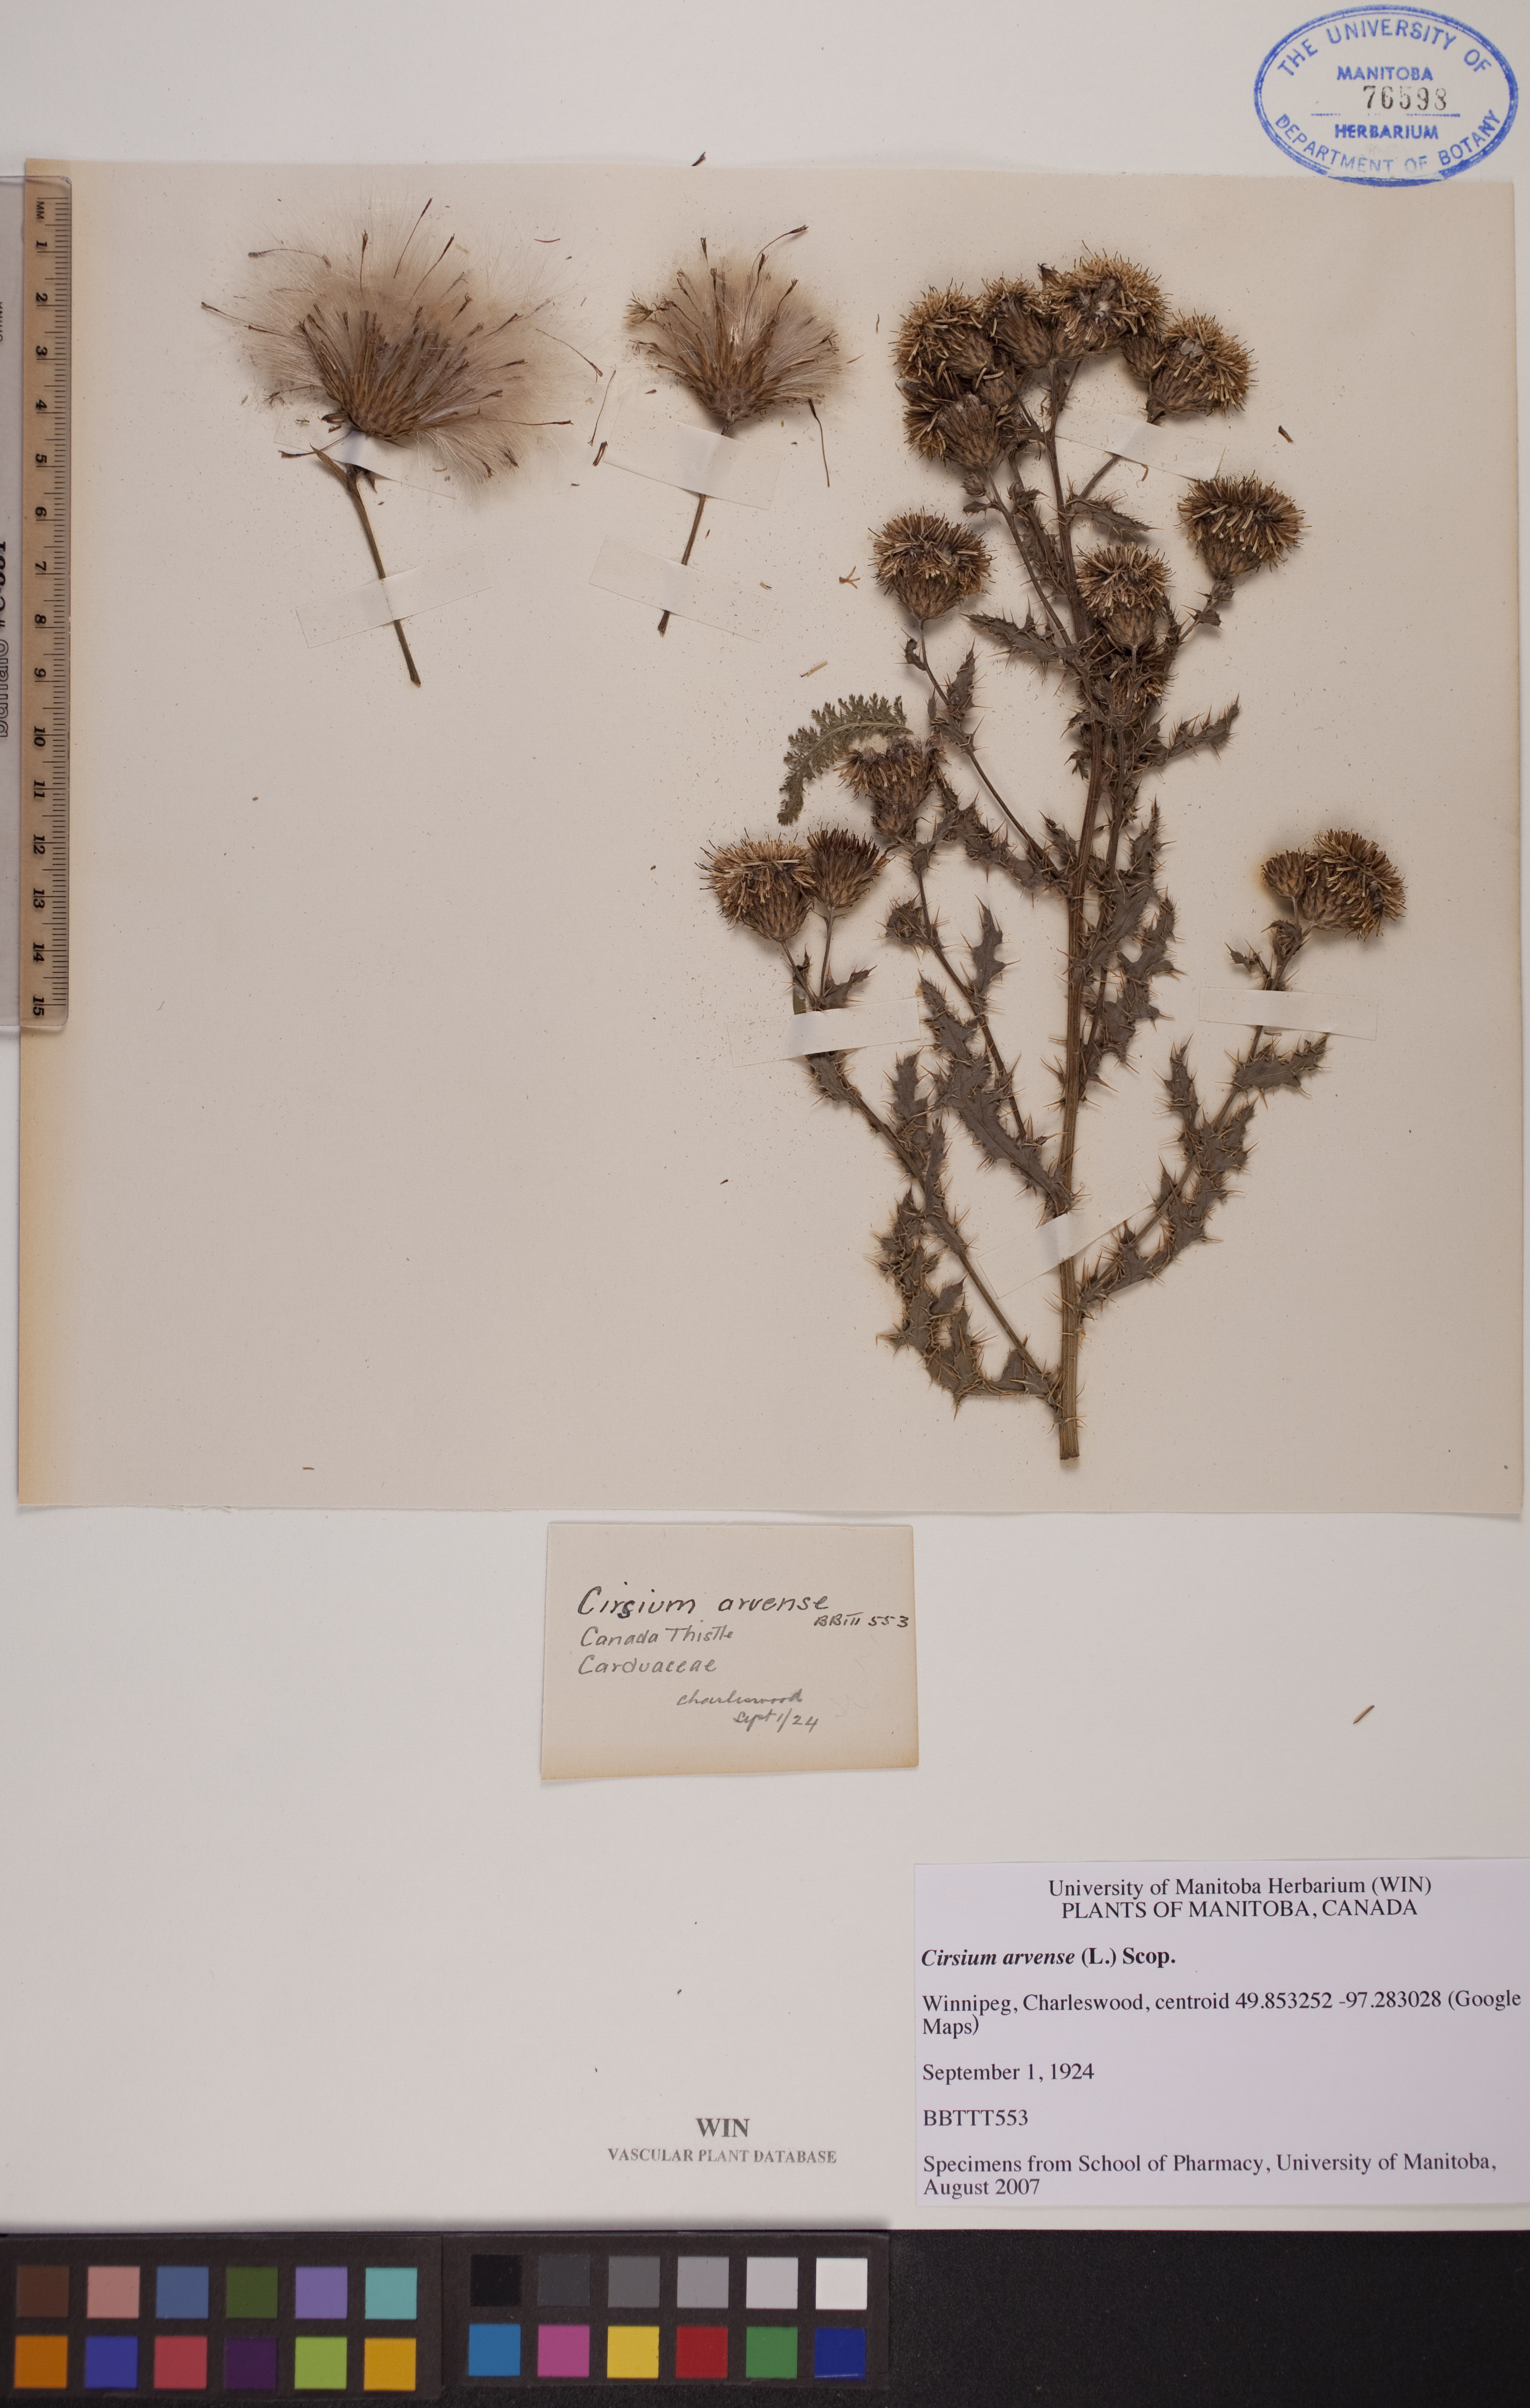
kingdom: Plantae
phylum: Tracheophyta
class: Magnoliopsida
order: Asterales
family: Asteraceae
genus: Cirsium
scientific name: Cirsium arvense
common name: Creeping thistle
